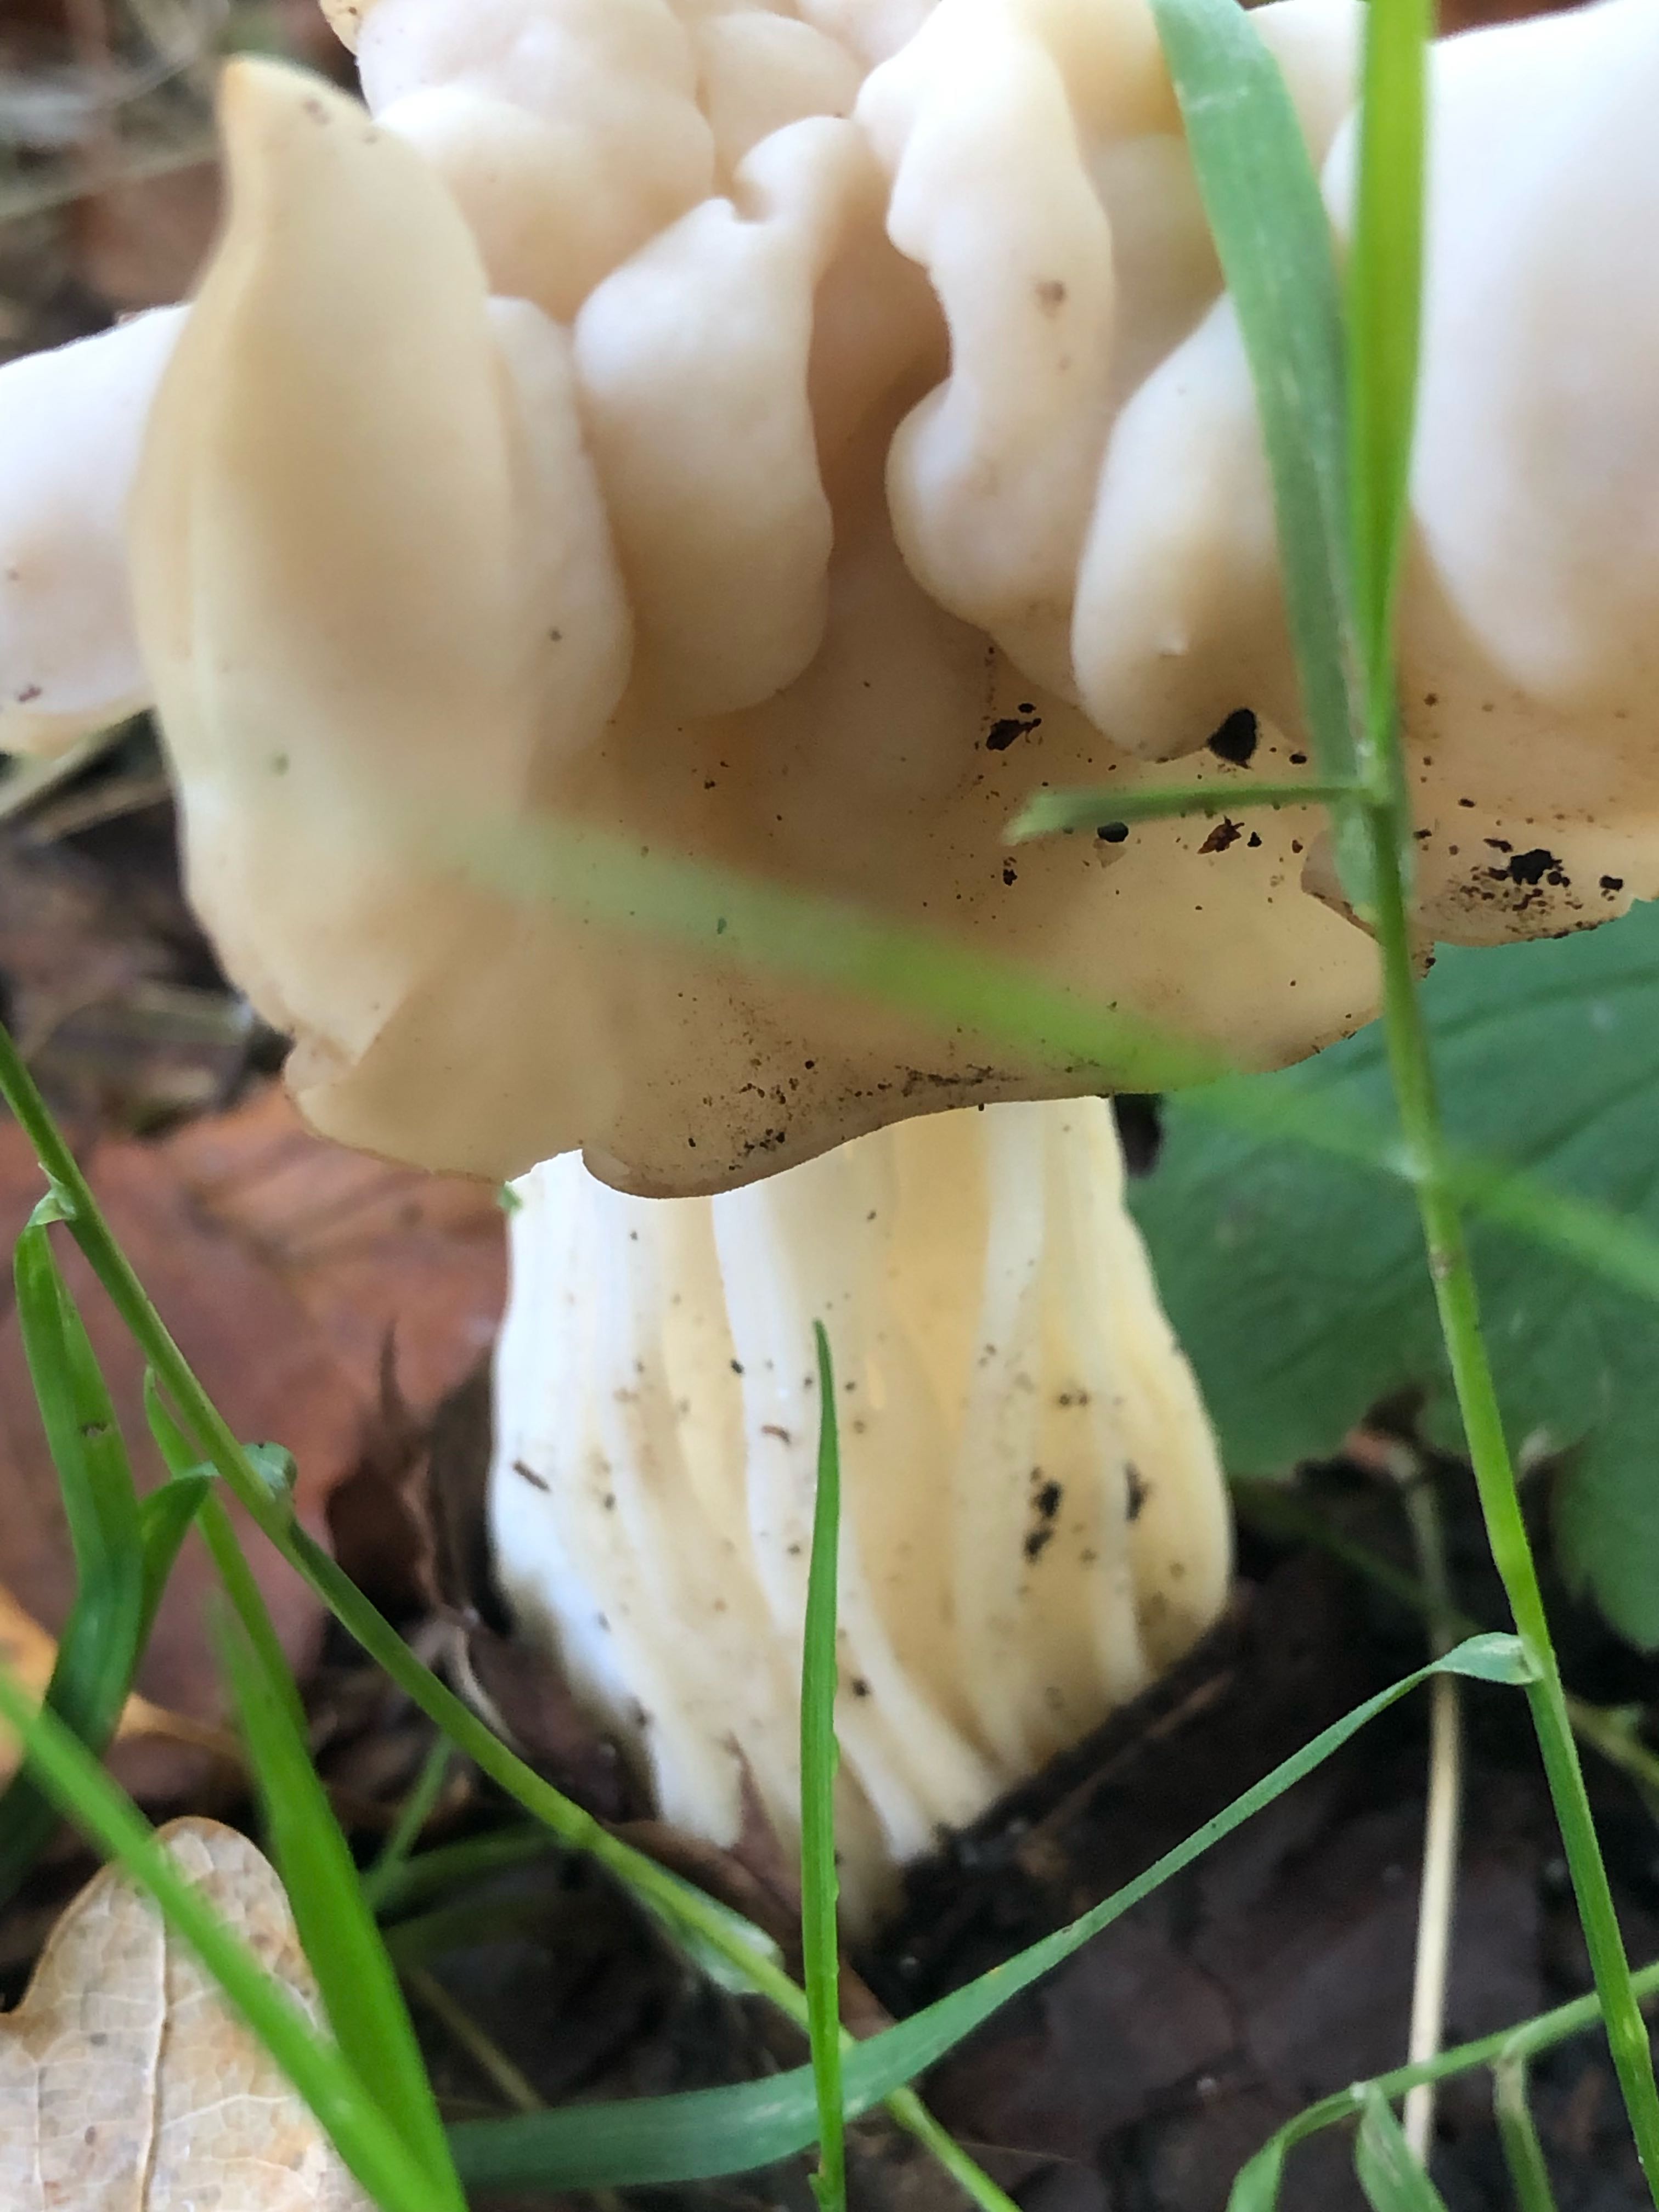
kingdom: Fungi
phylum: Ascomycota
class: Pezizomycetes
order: Pezizales
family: Helvellaceae
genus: Helvella
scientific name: Helvella crispa
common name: kruset foldhat
